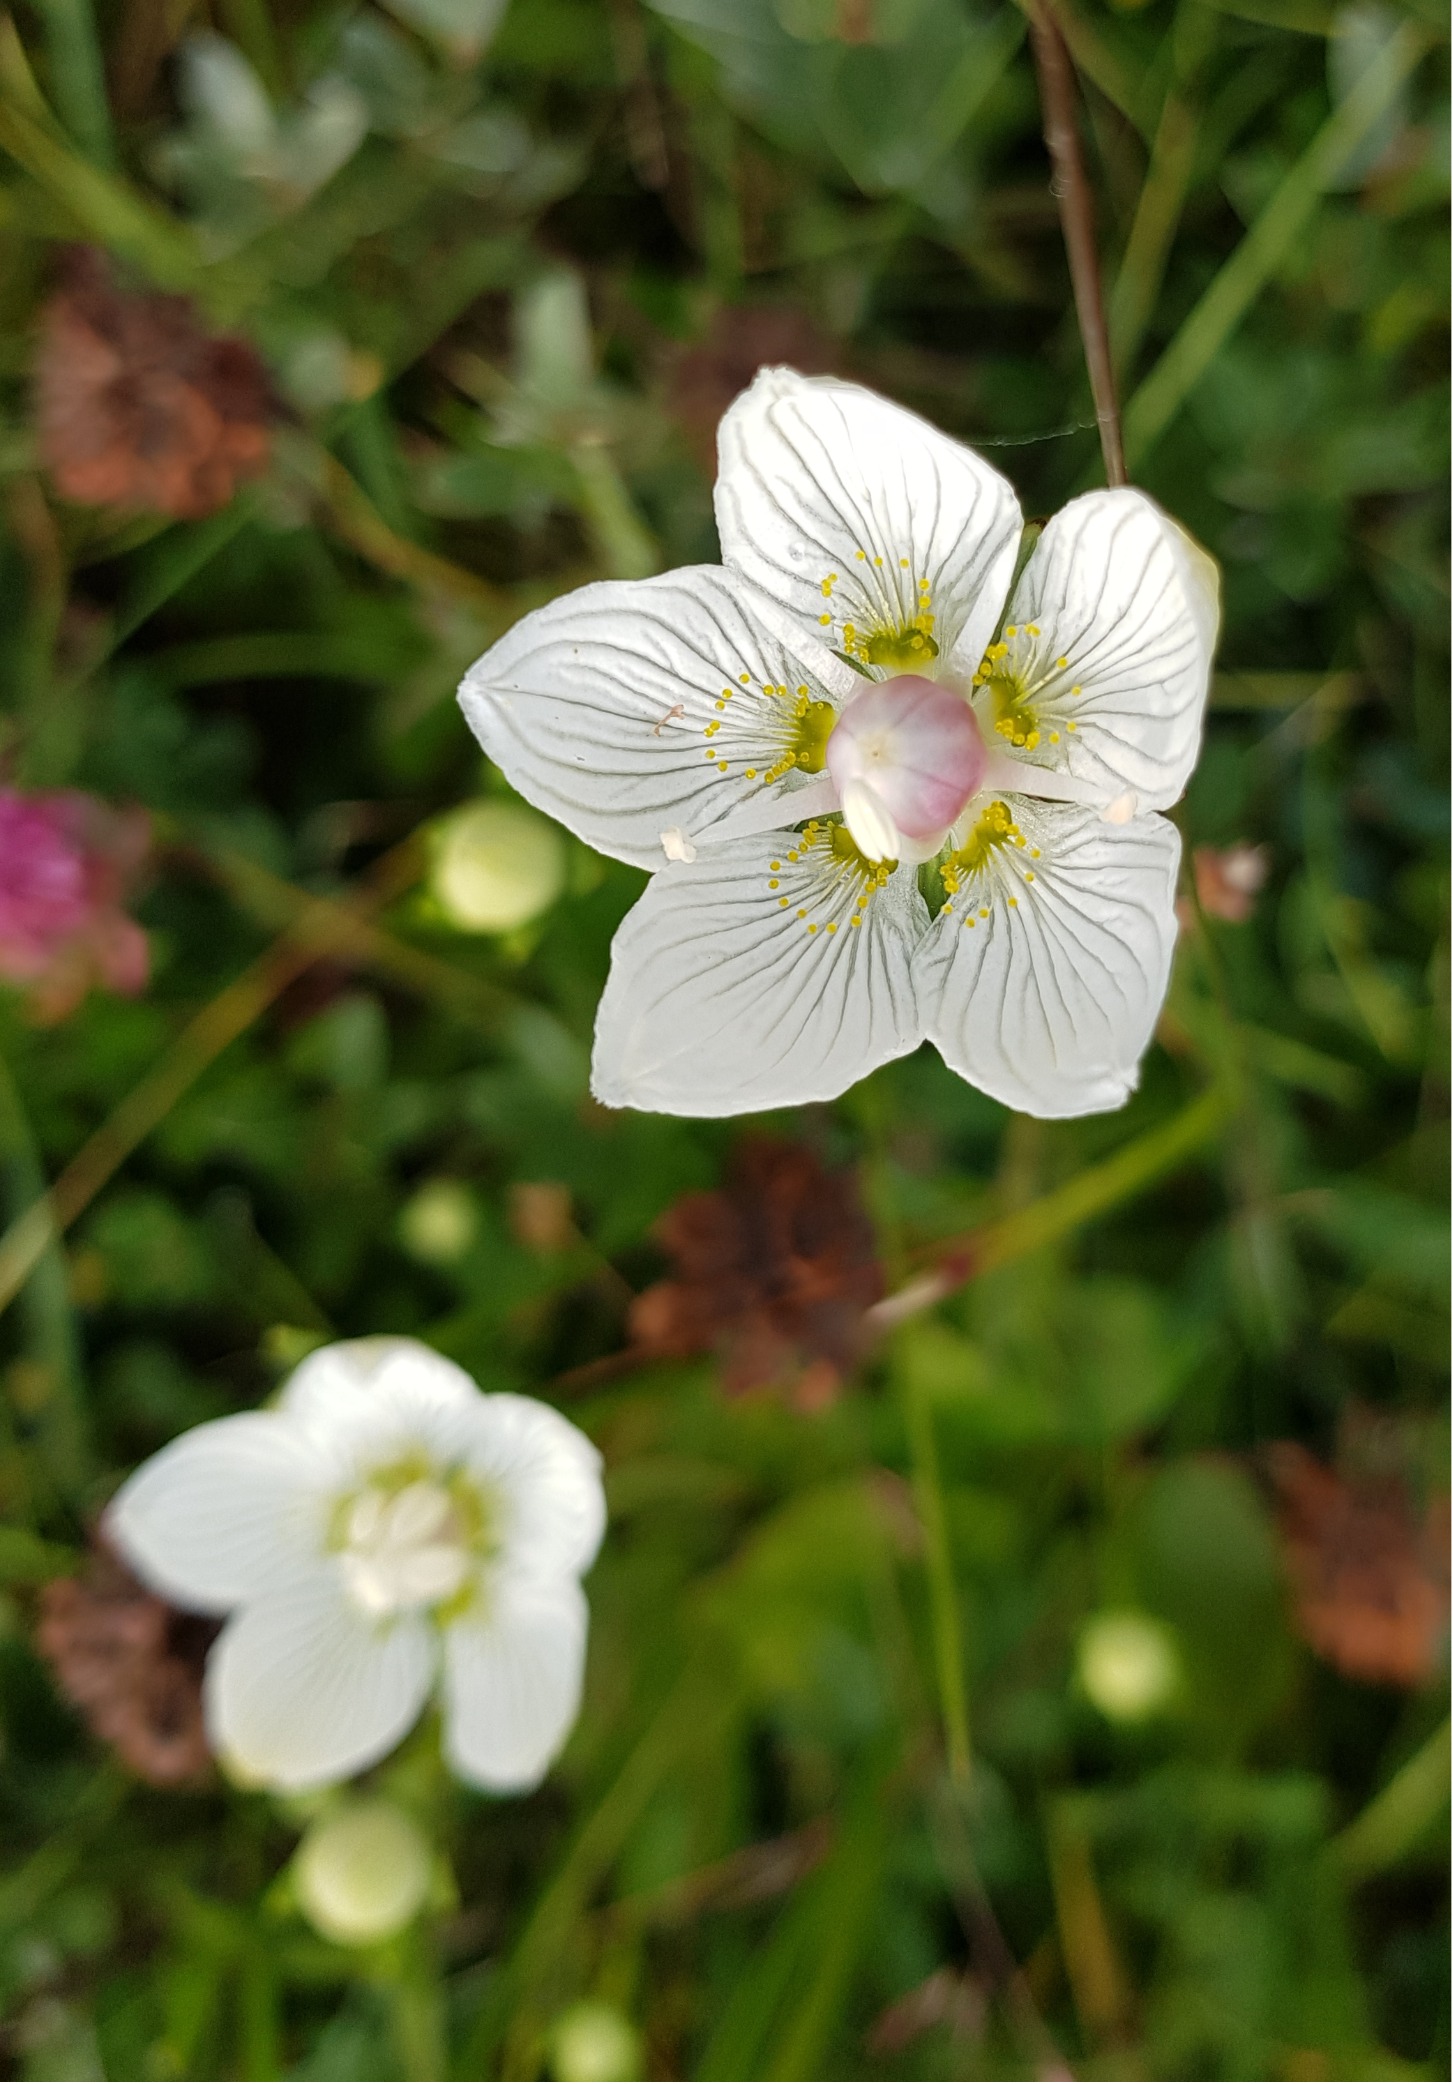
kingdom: Plantae
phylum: Tracheophyta
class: Magnoliopsida
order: Celastrales
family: Parnassiaceae
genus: Parnassia
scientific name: Parnassia palustris
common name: Leverurt
